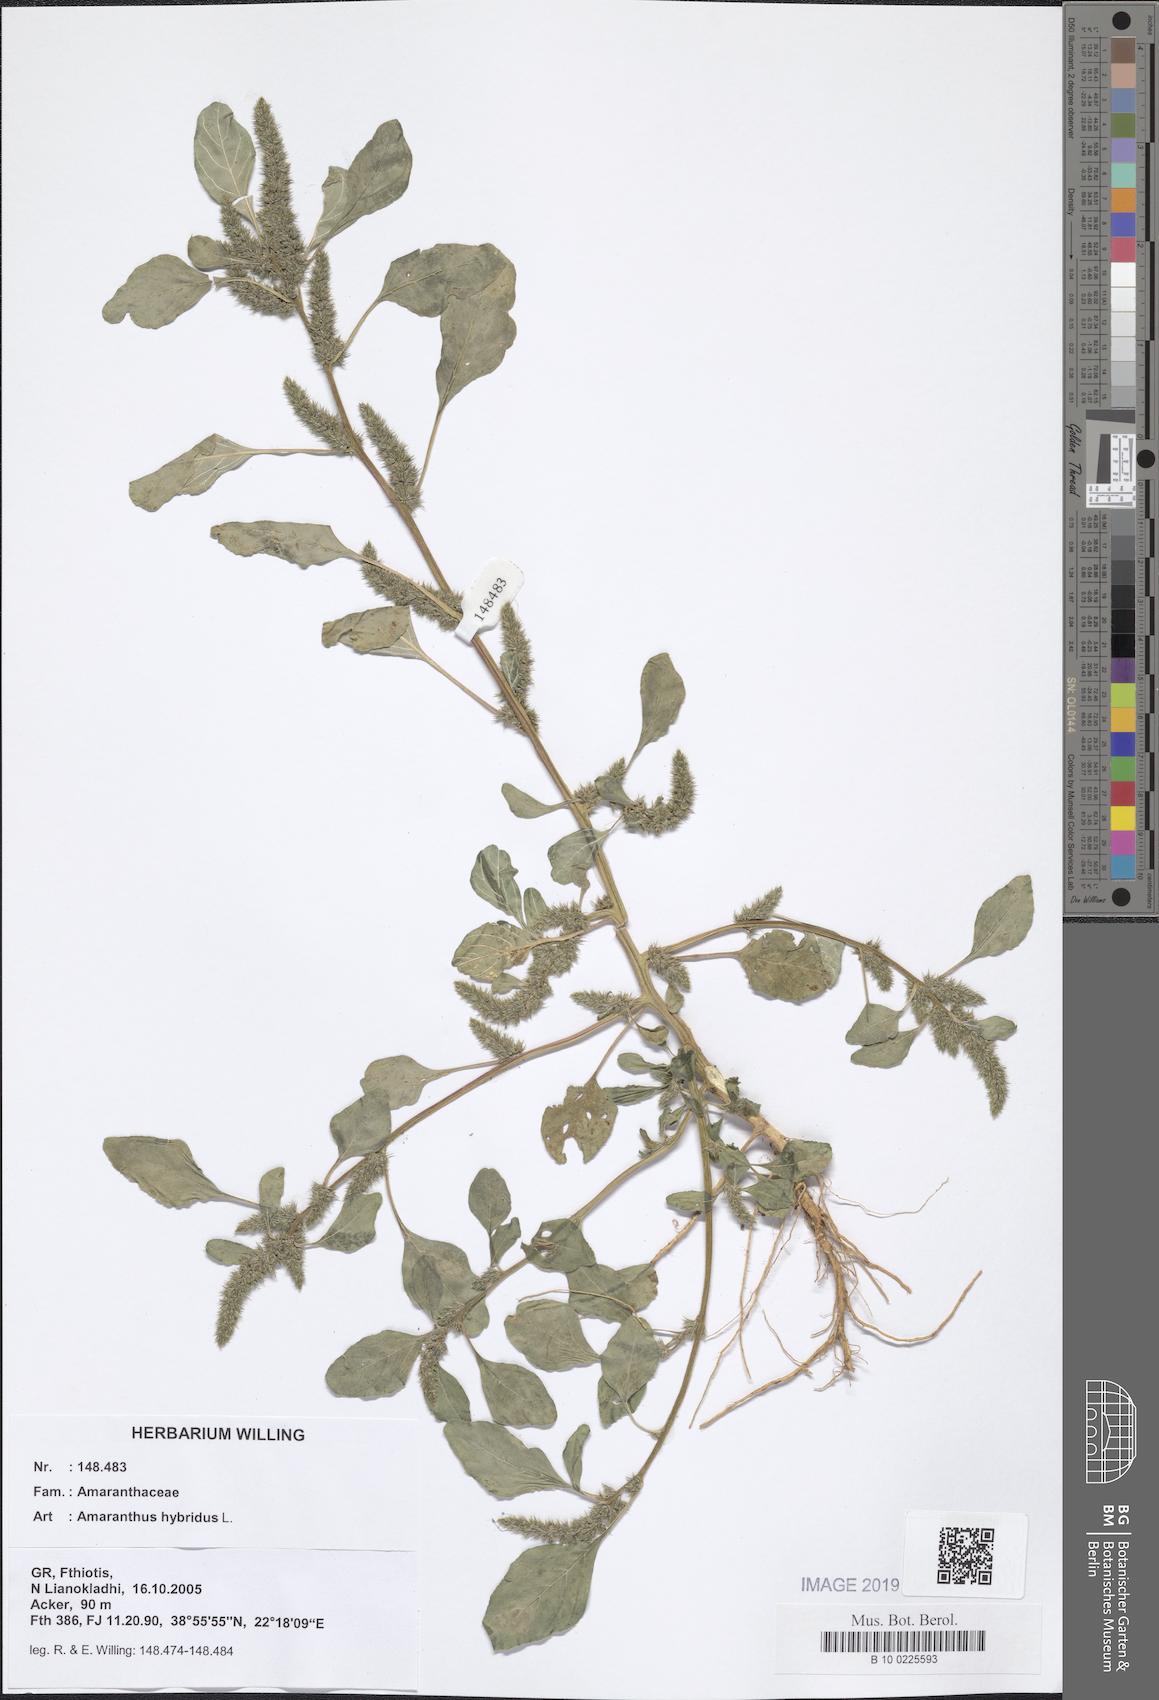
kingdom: Plantae
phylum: Tracheophyta
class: Magnoliopsida
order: Caryophyllales
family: Amaranthaceae
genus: Amaranthus
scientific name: Amaranthus hybridus
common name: Green amaranth
